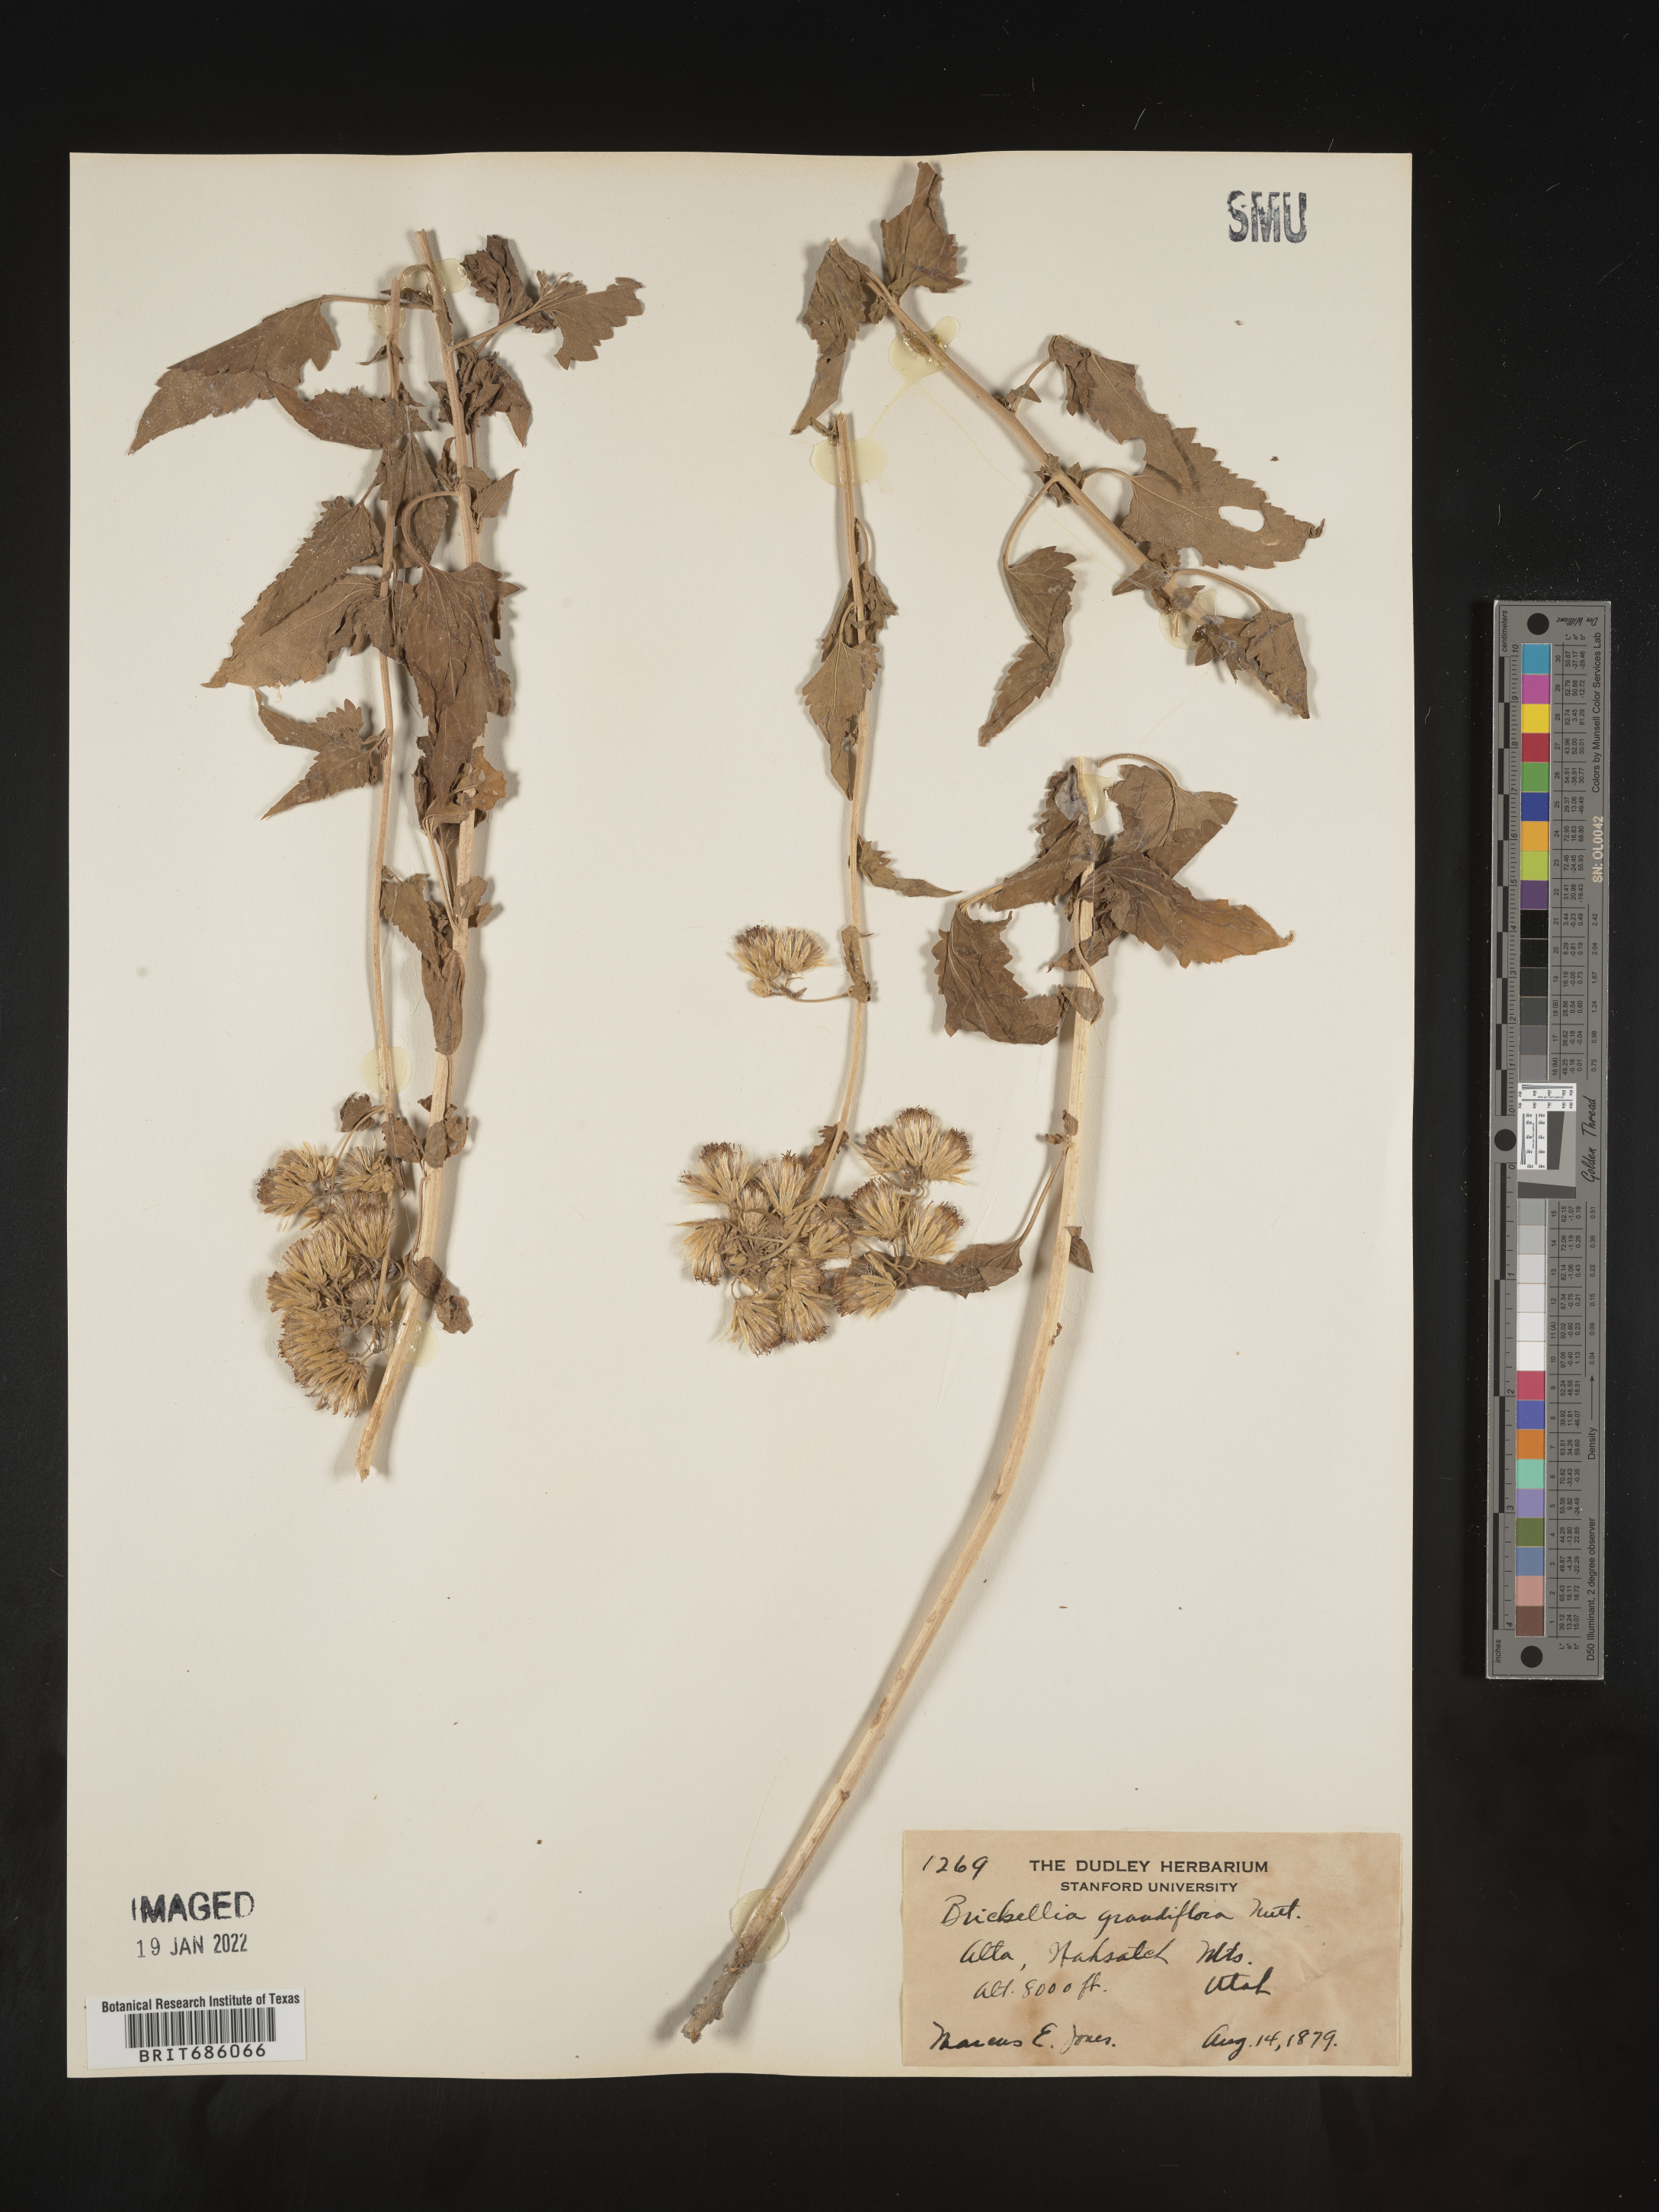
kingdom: Plantae
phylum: Tracheophyta
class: Magnoliopsida
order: Asterales
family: Asteraceae
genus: Brickellia
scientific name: Brickellia grandiflora
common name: Large-flowered brickellia
